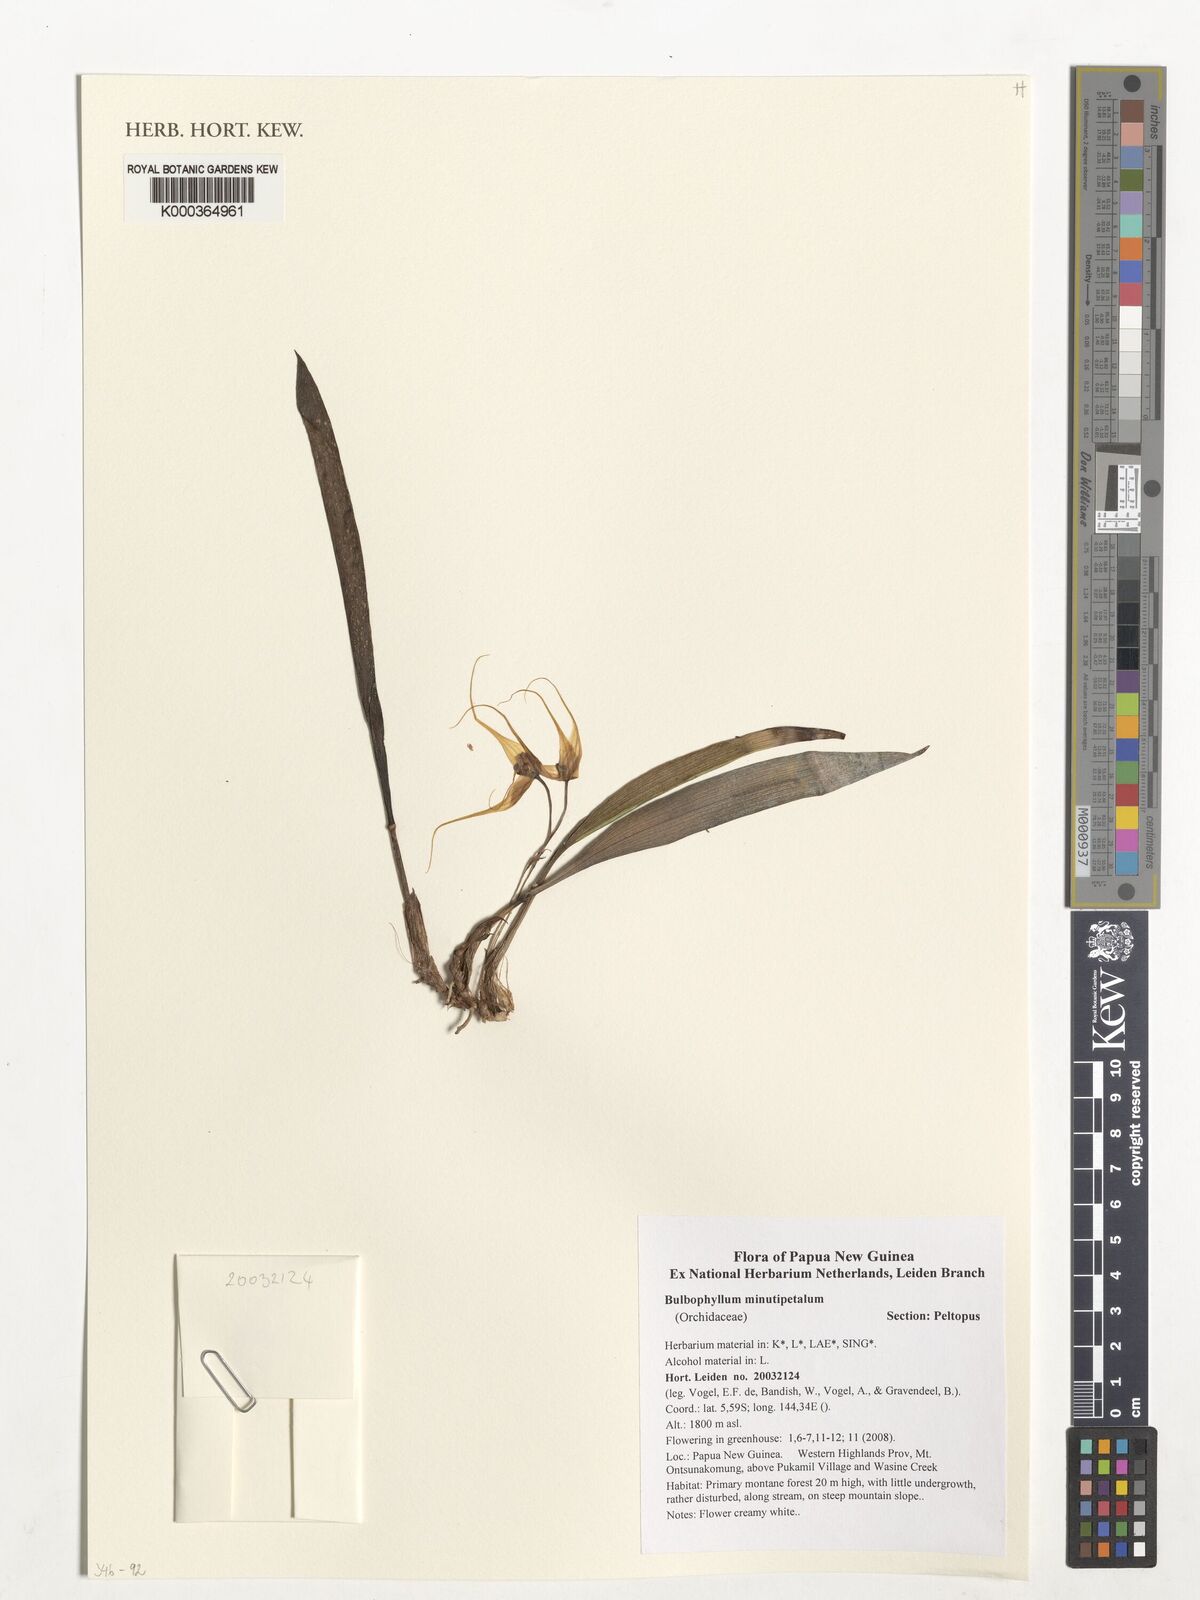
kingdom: Plantae
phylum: Tracheophyta
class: Liliopsida
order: Asparagales
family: Orchidaceae
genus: Bulbophyllum
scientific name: Bulbophyllum minutipetalum
